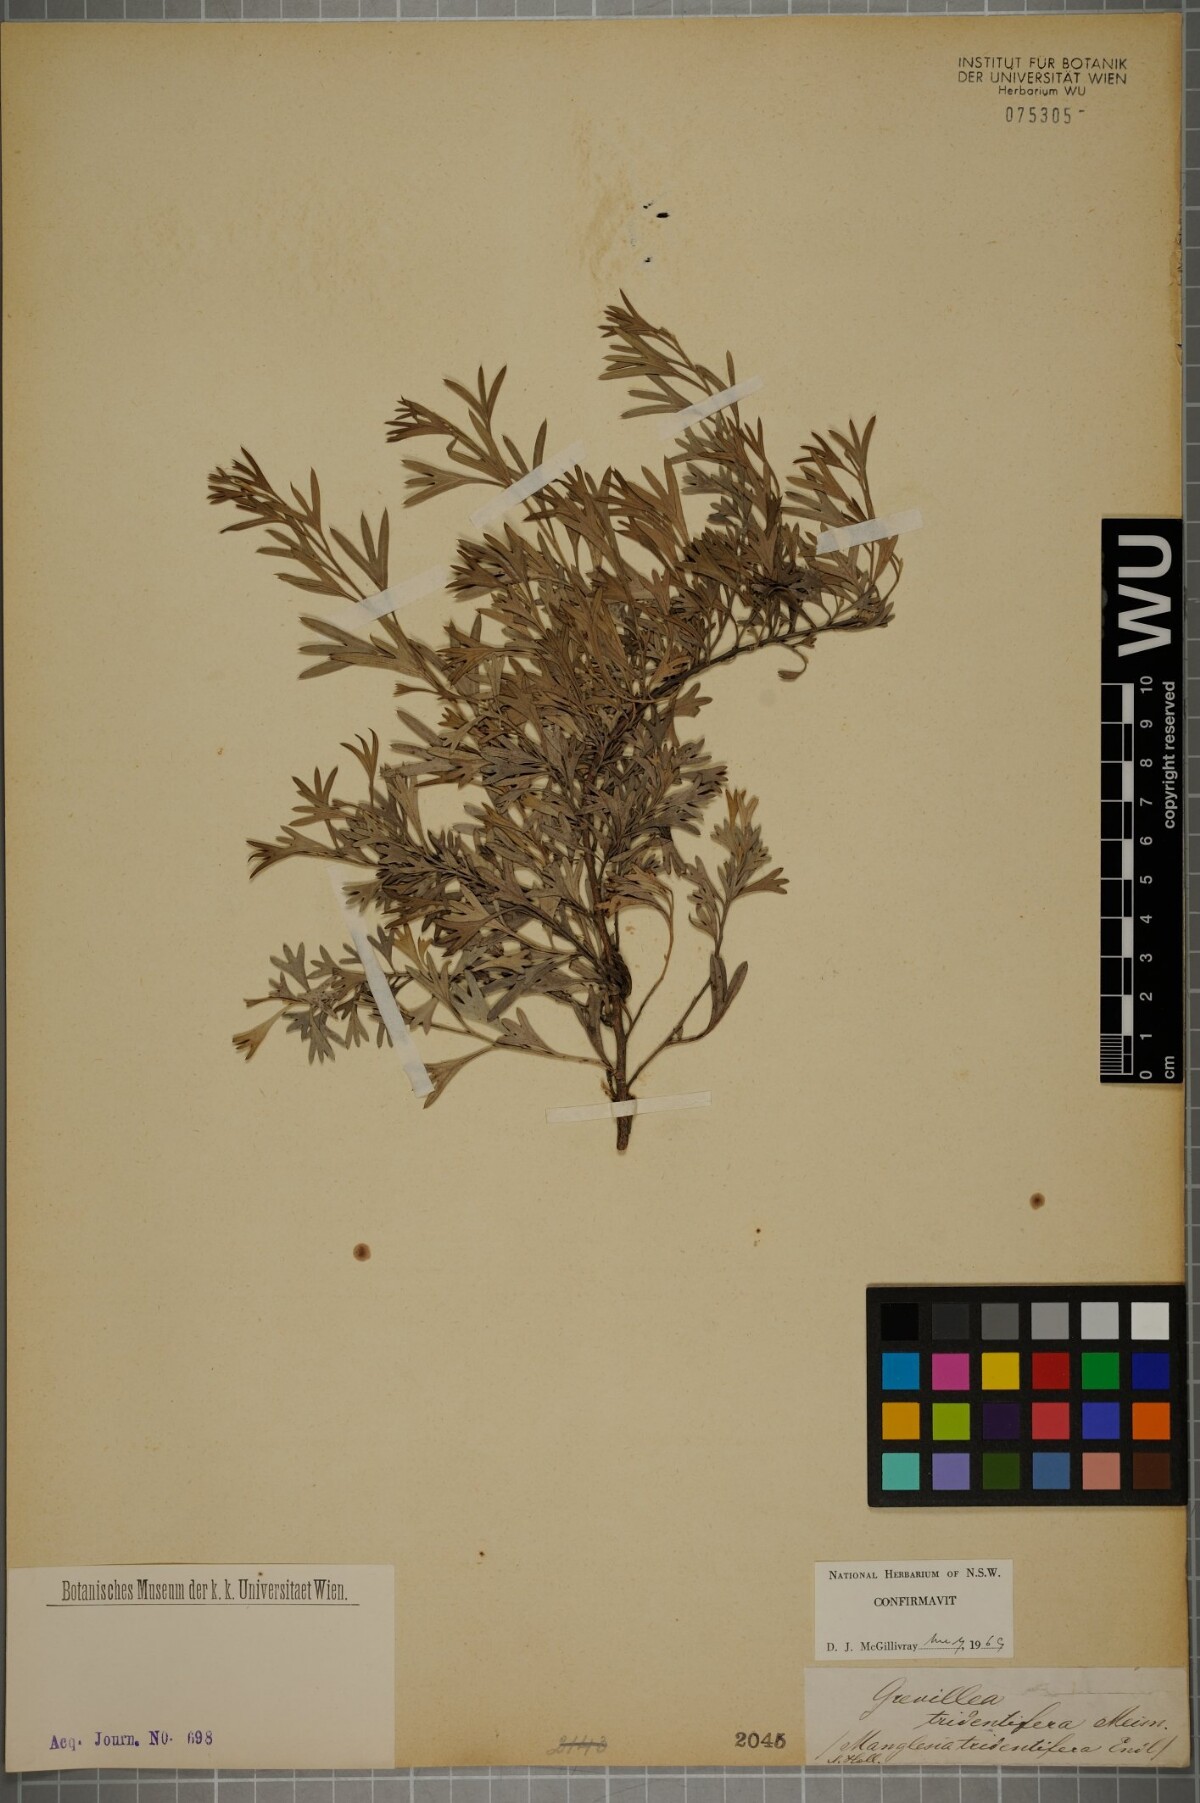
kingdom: Plantae
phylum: Tracheophyta
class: Magnoliopsida
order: Proteales
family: Proteaceae
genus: Grevillea
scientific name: Grevillea Manglesia tridentifera
